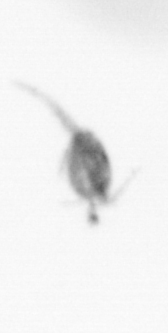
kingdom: Animalia
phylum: Arthropoda
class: Copepoda
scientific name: Copepoda
